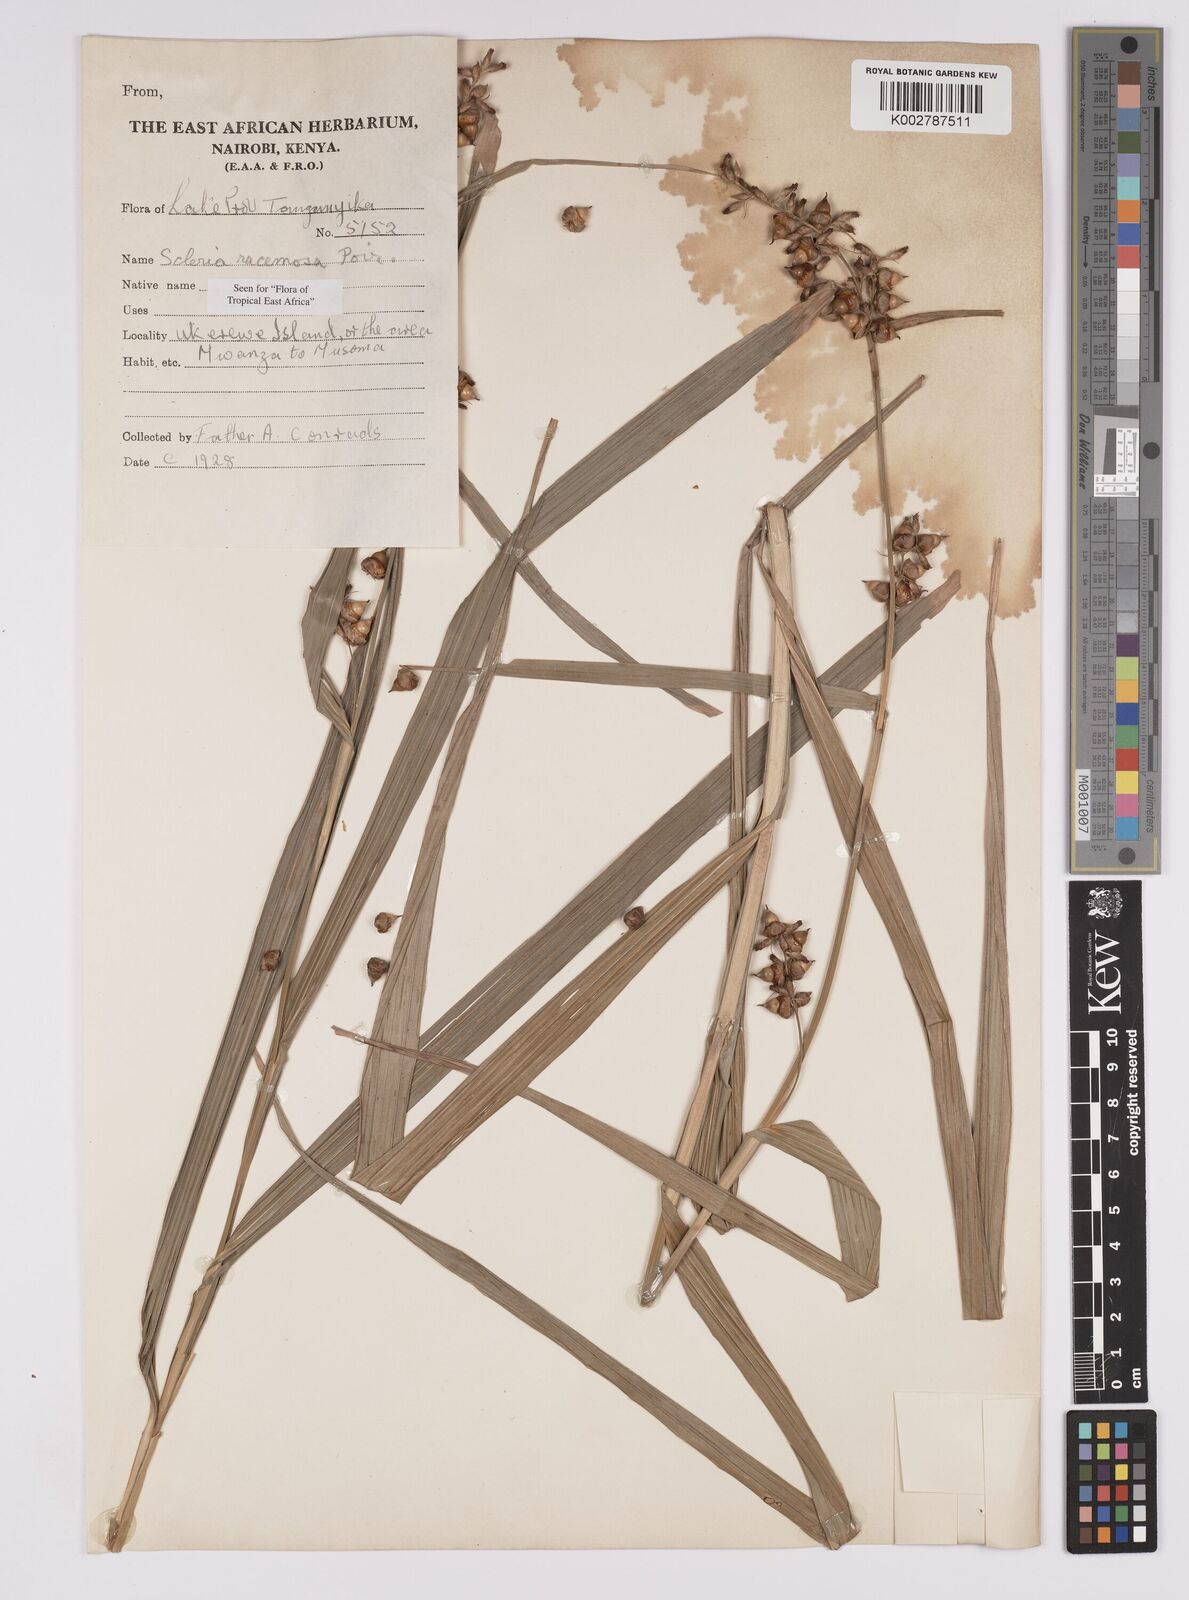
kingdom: Plantae
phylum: Tracheophyta
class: Liliopsida
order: Poales
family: Cyperaceae
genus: Scleria
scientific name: Scleria racemosa
